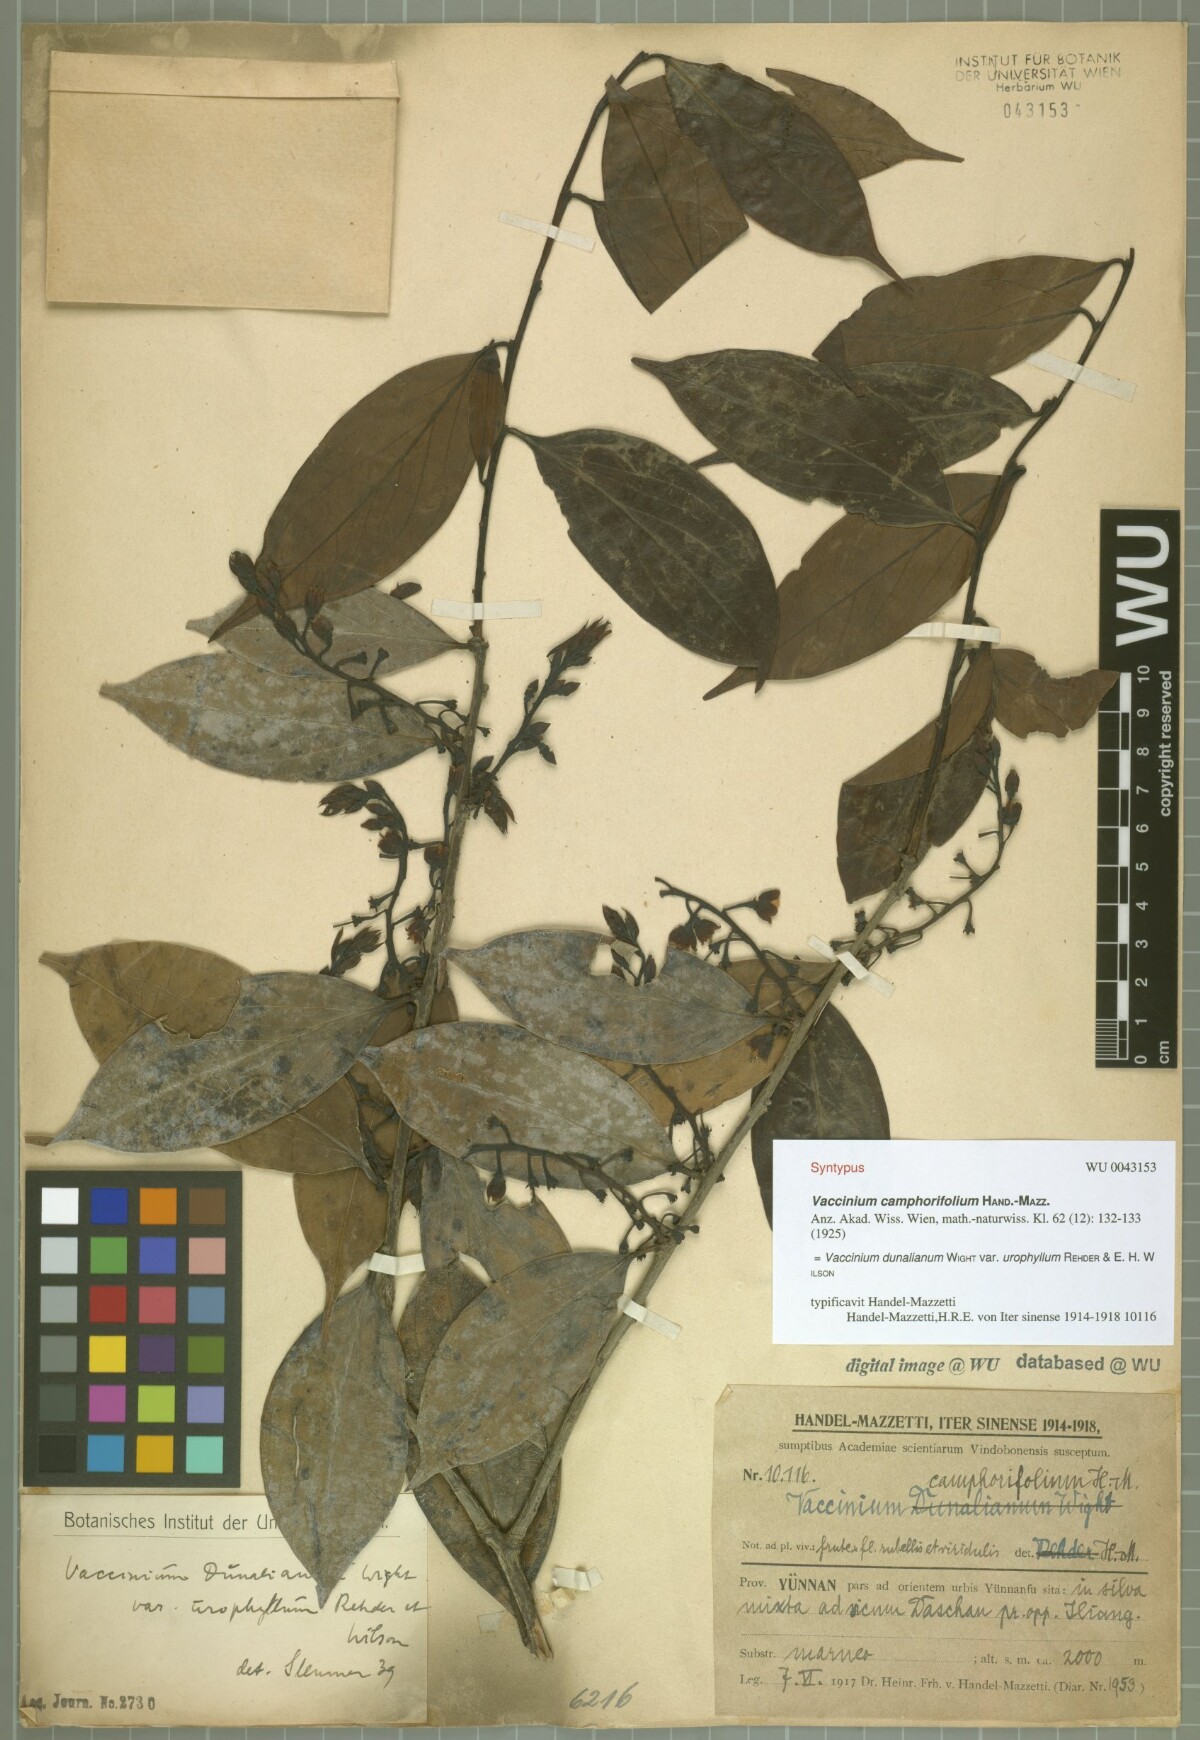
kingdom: Plantae
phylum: Tracheophyta
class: Magnoliopsida
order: Ericales
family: Ericaceae
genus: Vaccinium
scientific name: Vaccinium dunalianum
